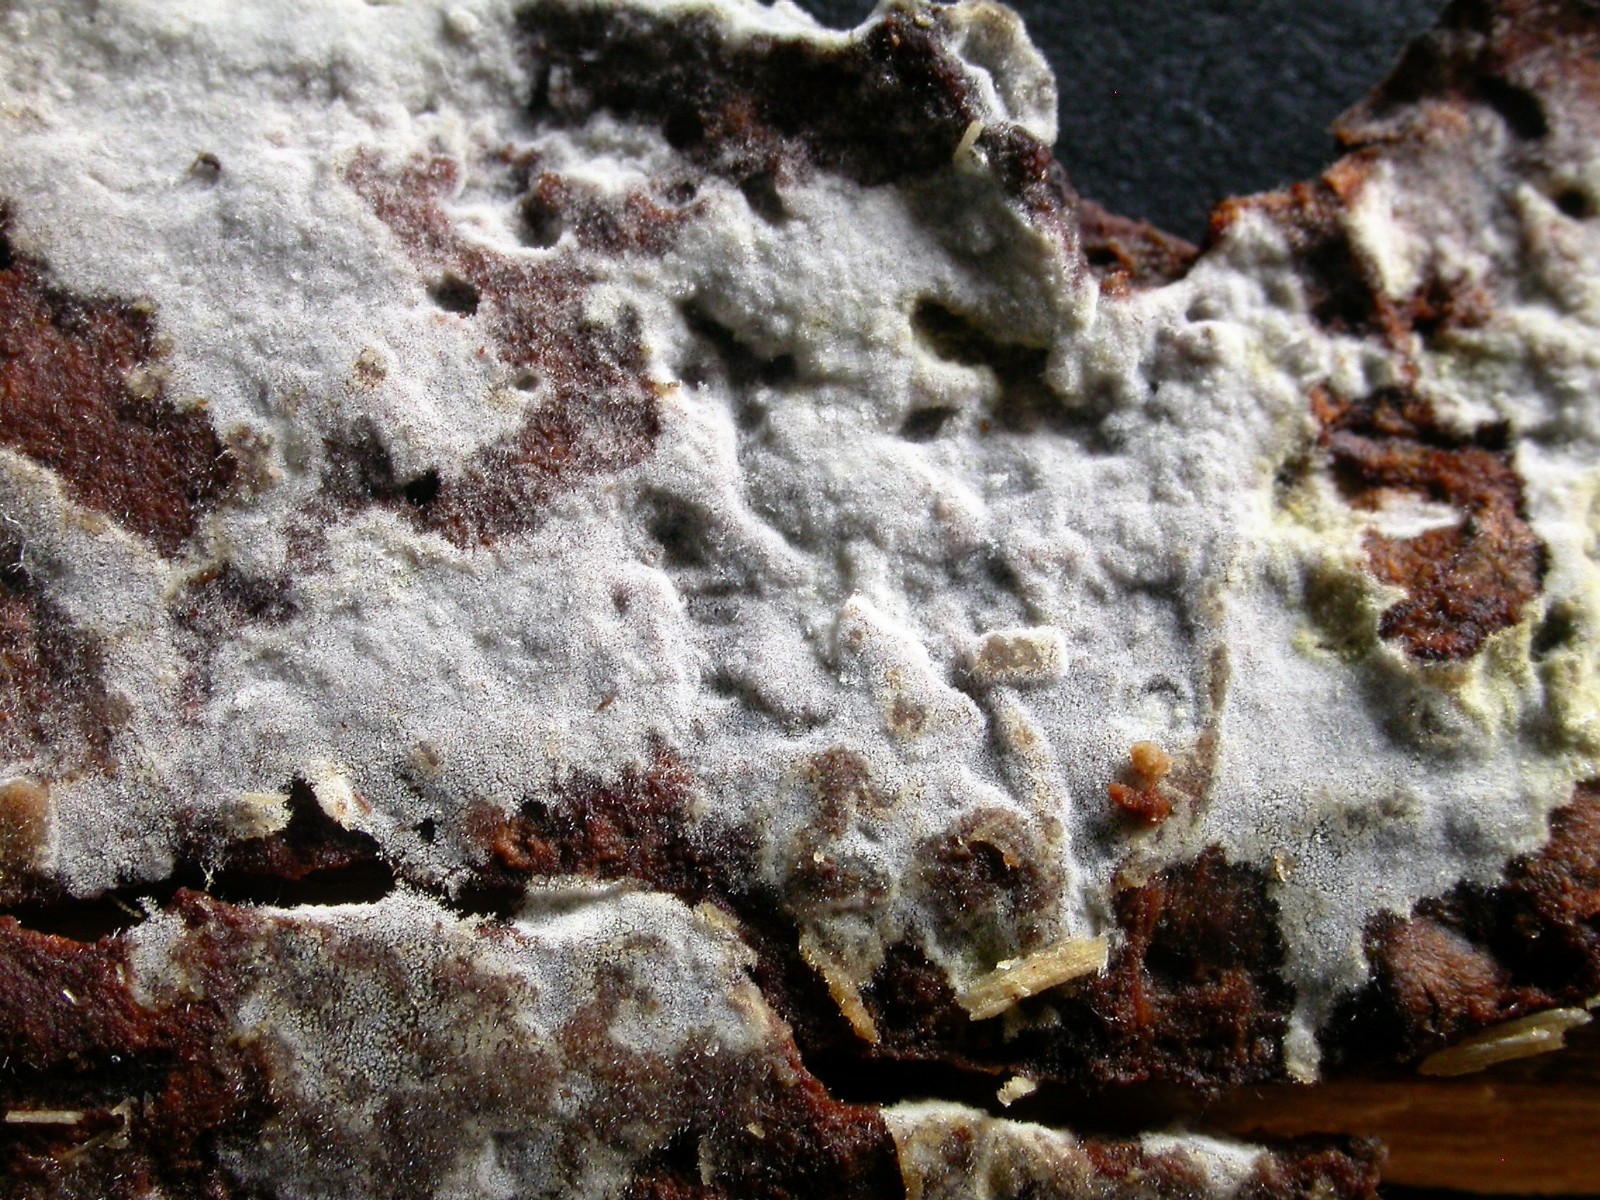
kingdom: Fungi
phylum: Basidiomycota
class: Agaricomycetes
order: Cantharellales
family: Botryobasidiaceae
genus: Botryobasidium
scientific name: Botryobasidium capitatum
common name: kalkhvid spindhinde
